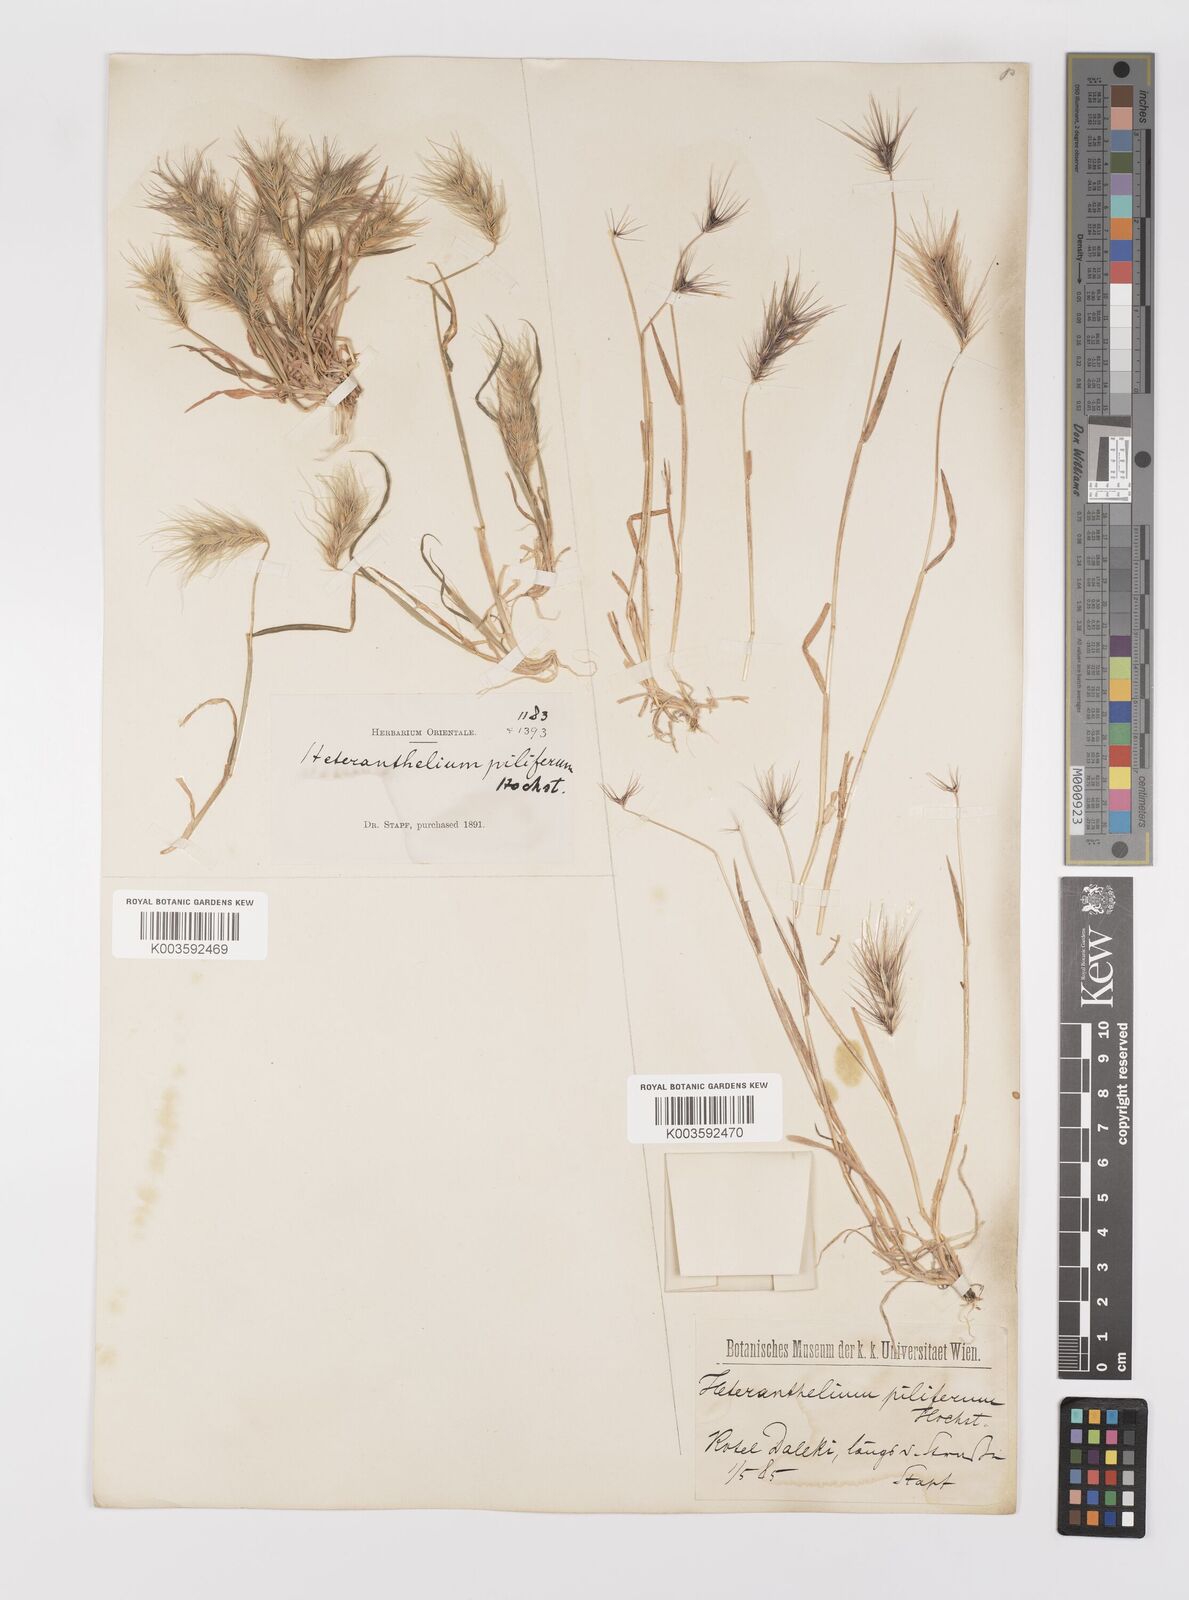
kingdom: Plantae
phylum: Tracheophyta
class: Liliopsida
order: Poales
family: Poaceae
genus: Heteranthelium
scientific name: Heteranthelium piliferum
